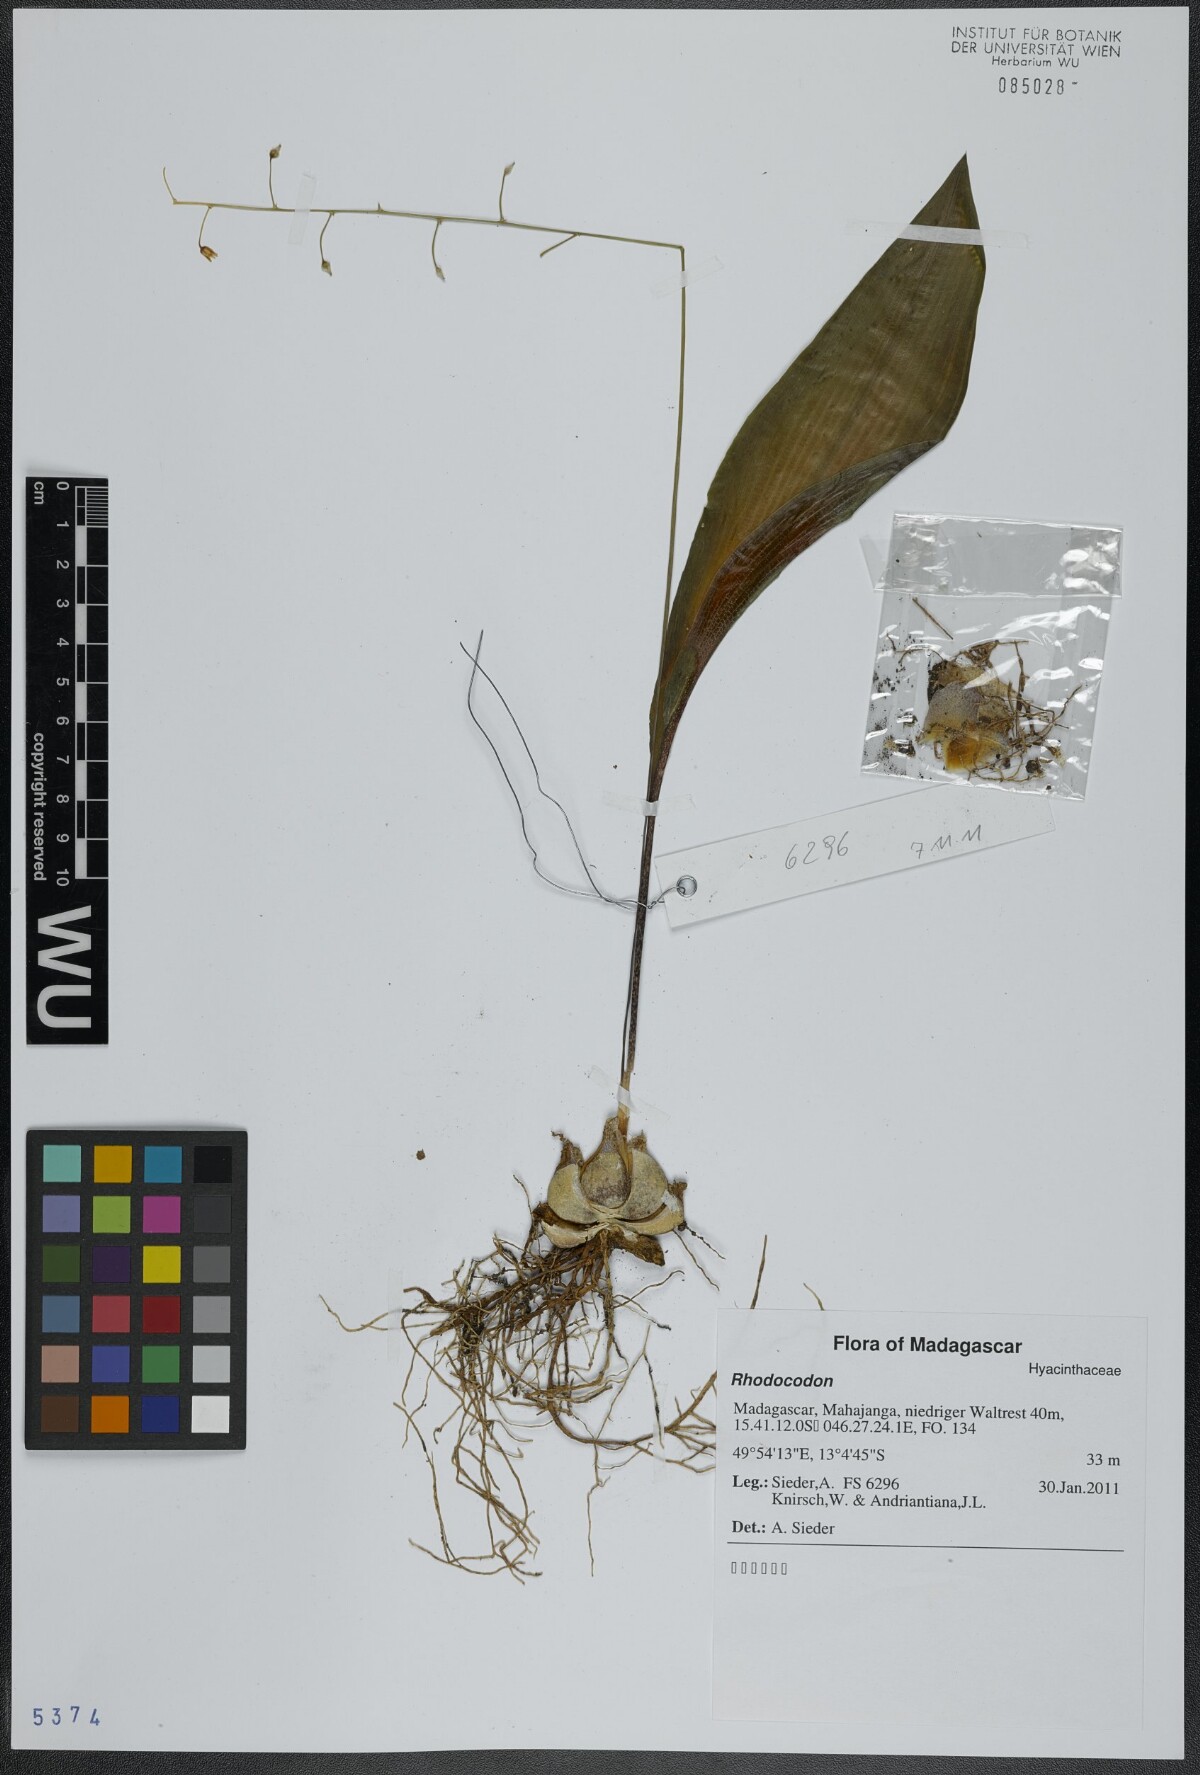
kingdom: Plantae
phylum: Tracheophyta
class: Liliopsida
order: Asparagales
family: Asparagaceae
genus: Drimia
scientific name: Drimia
